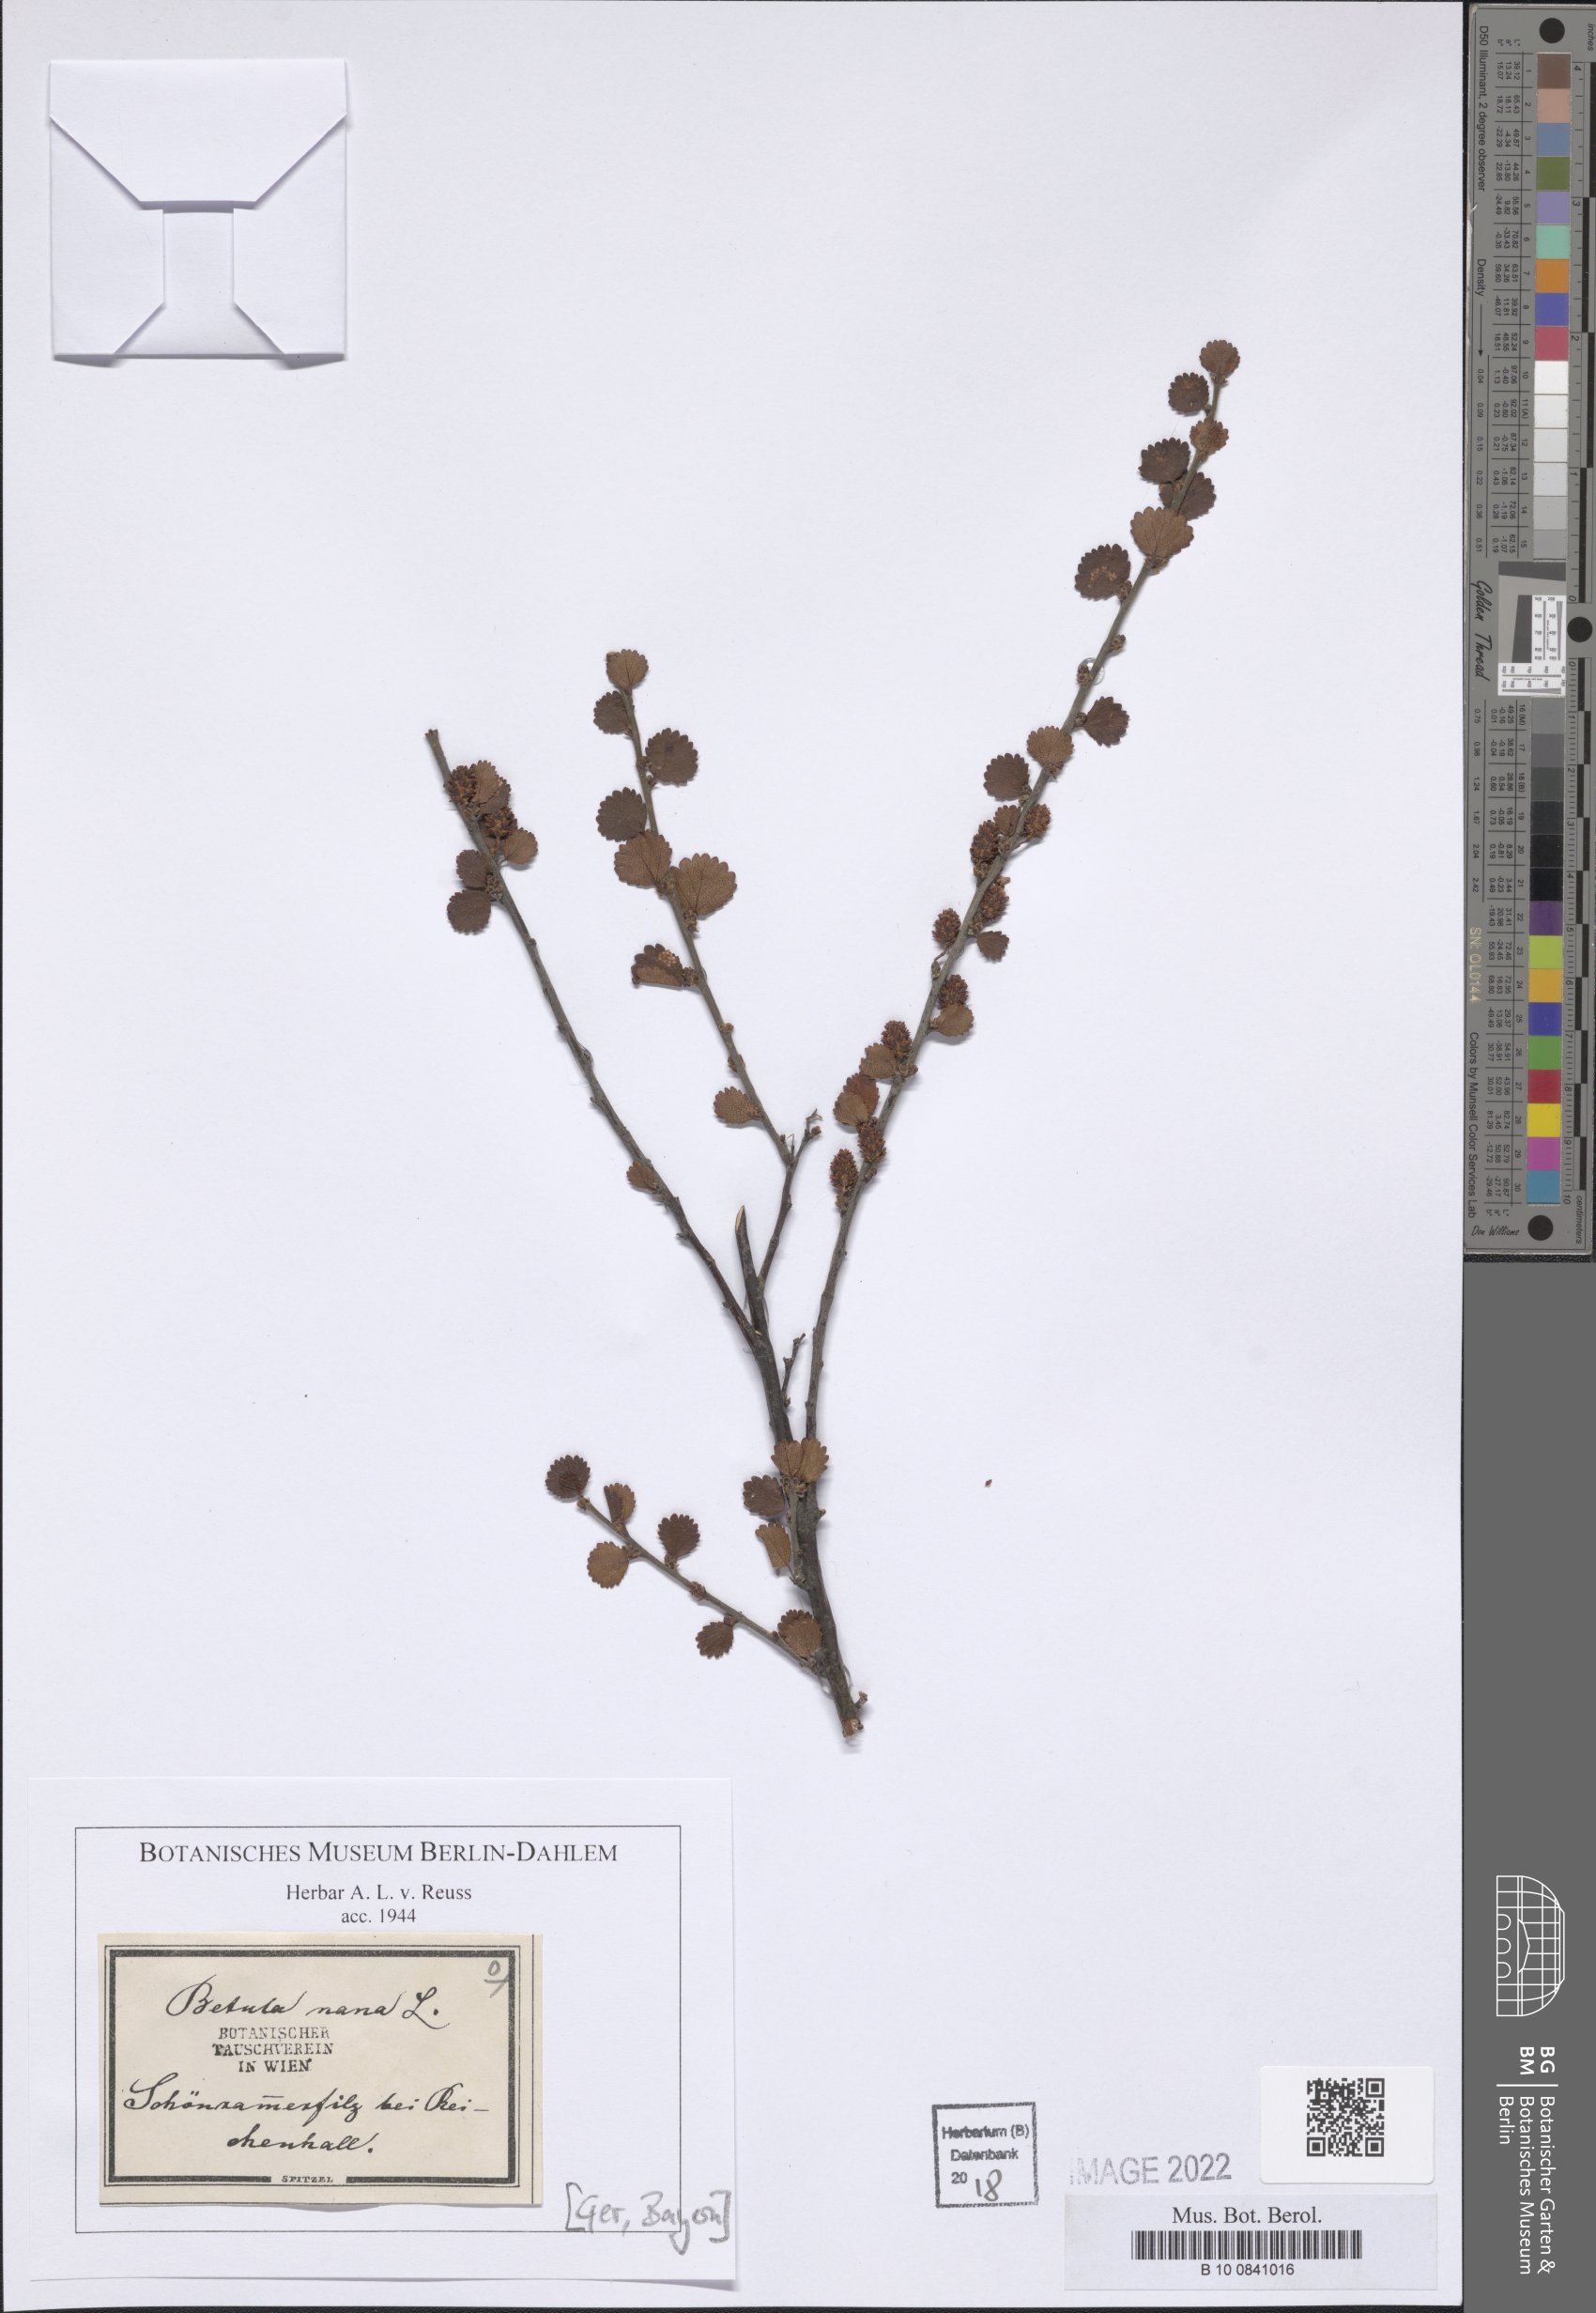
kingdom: Plantae
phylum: Tracheophyta
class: Magnoliopsida
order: Fagales
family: Betulaceae
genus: Betula
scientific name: Betula nana
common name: Arctic dwarf birch
